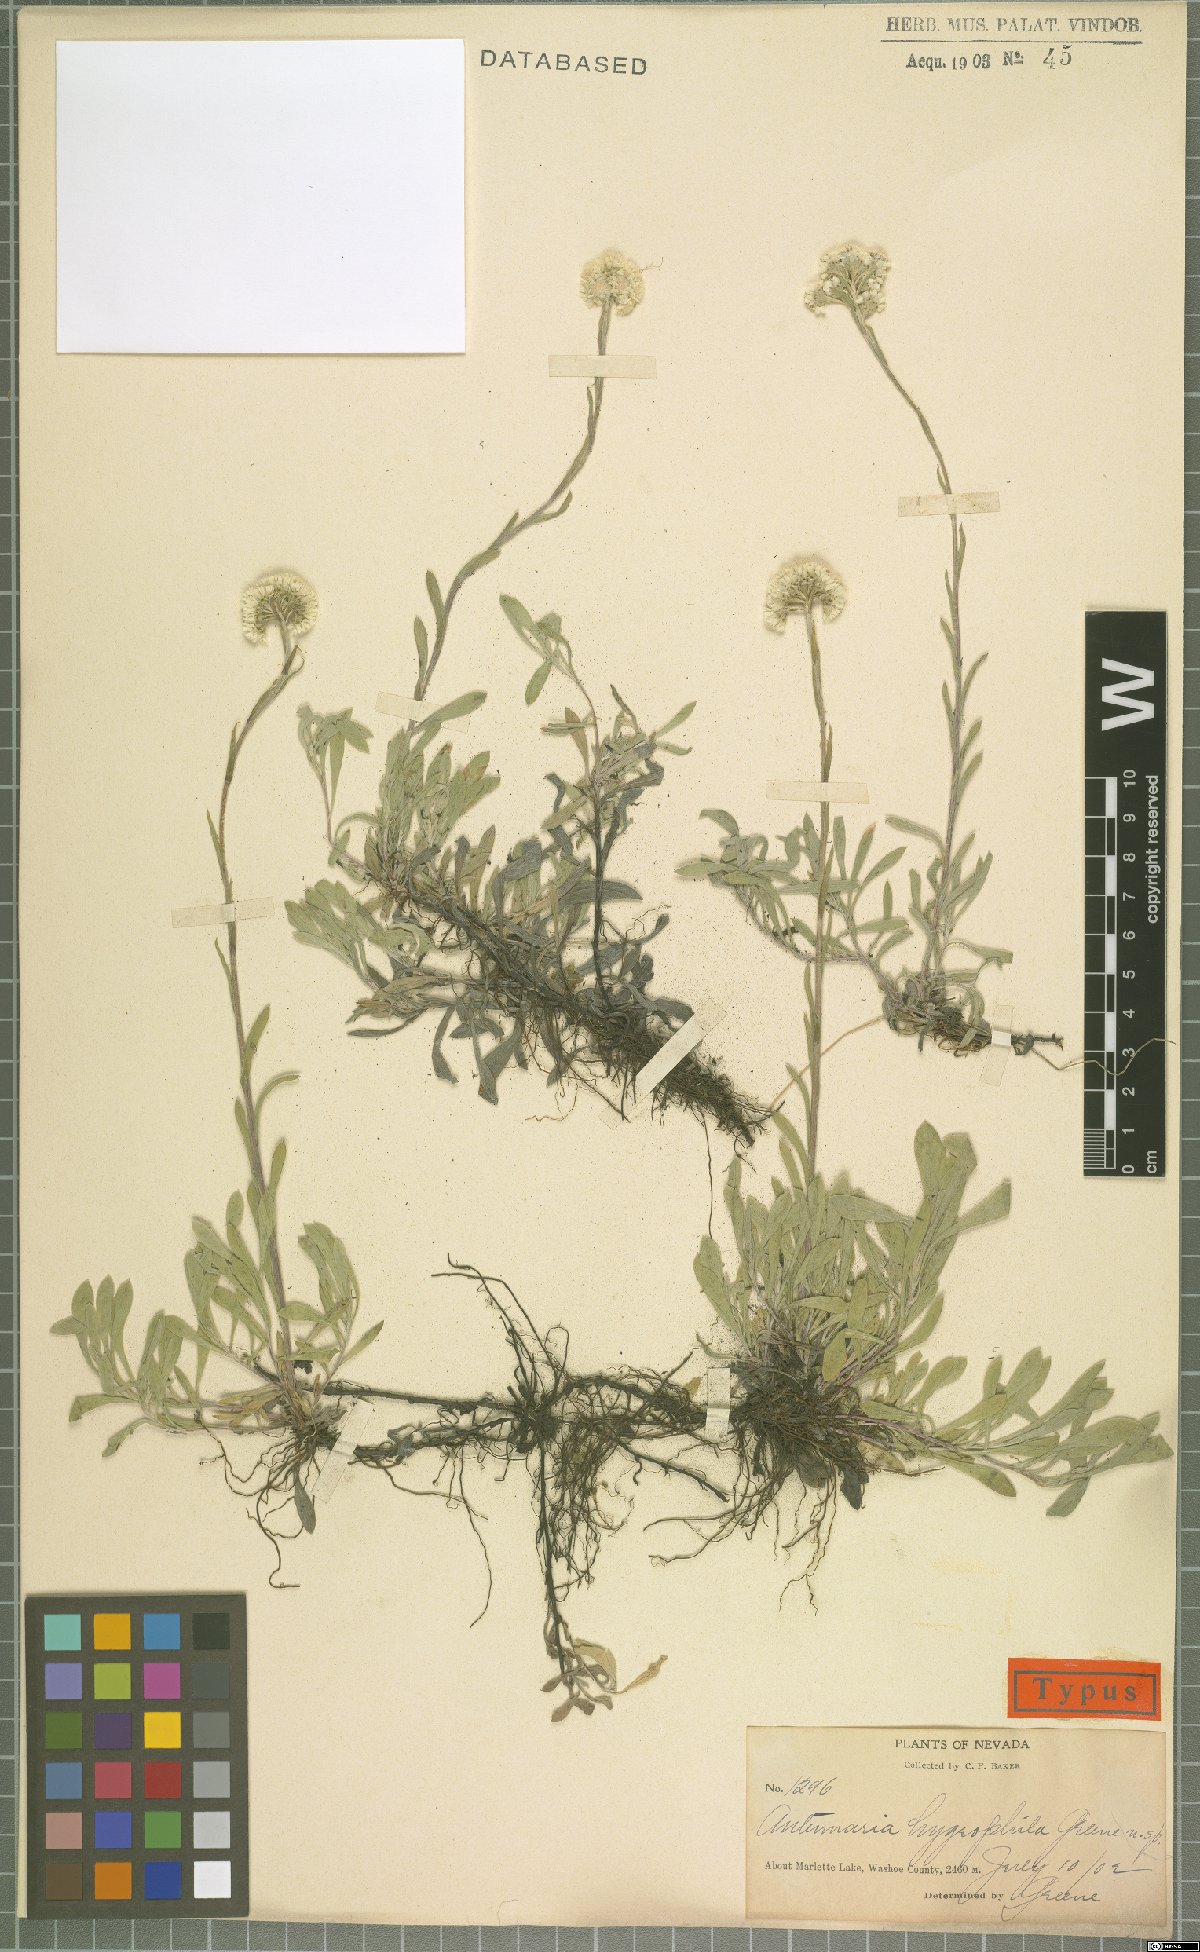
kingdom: Plantae
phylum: Tracheophyta
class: Magnoliopsida
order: Asterales
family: Asteraceae
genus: Antennaria
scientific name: Antennaria corymbosa
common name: Meadow pussytoes
